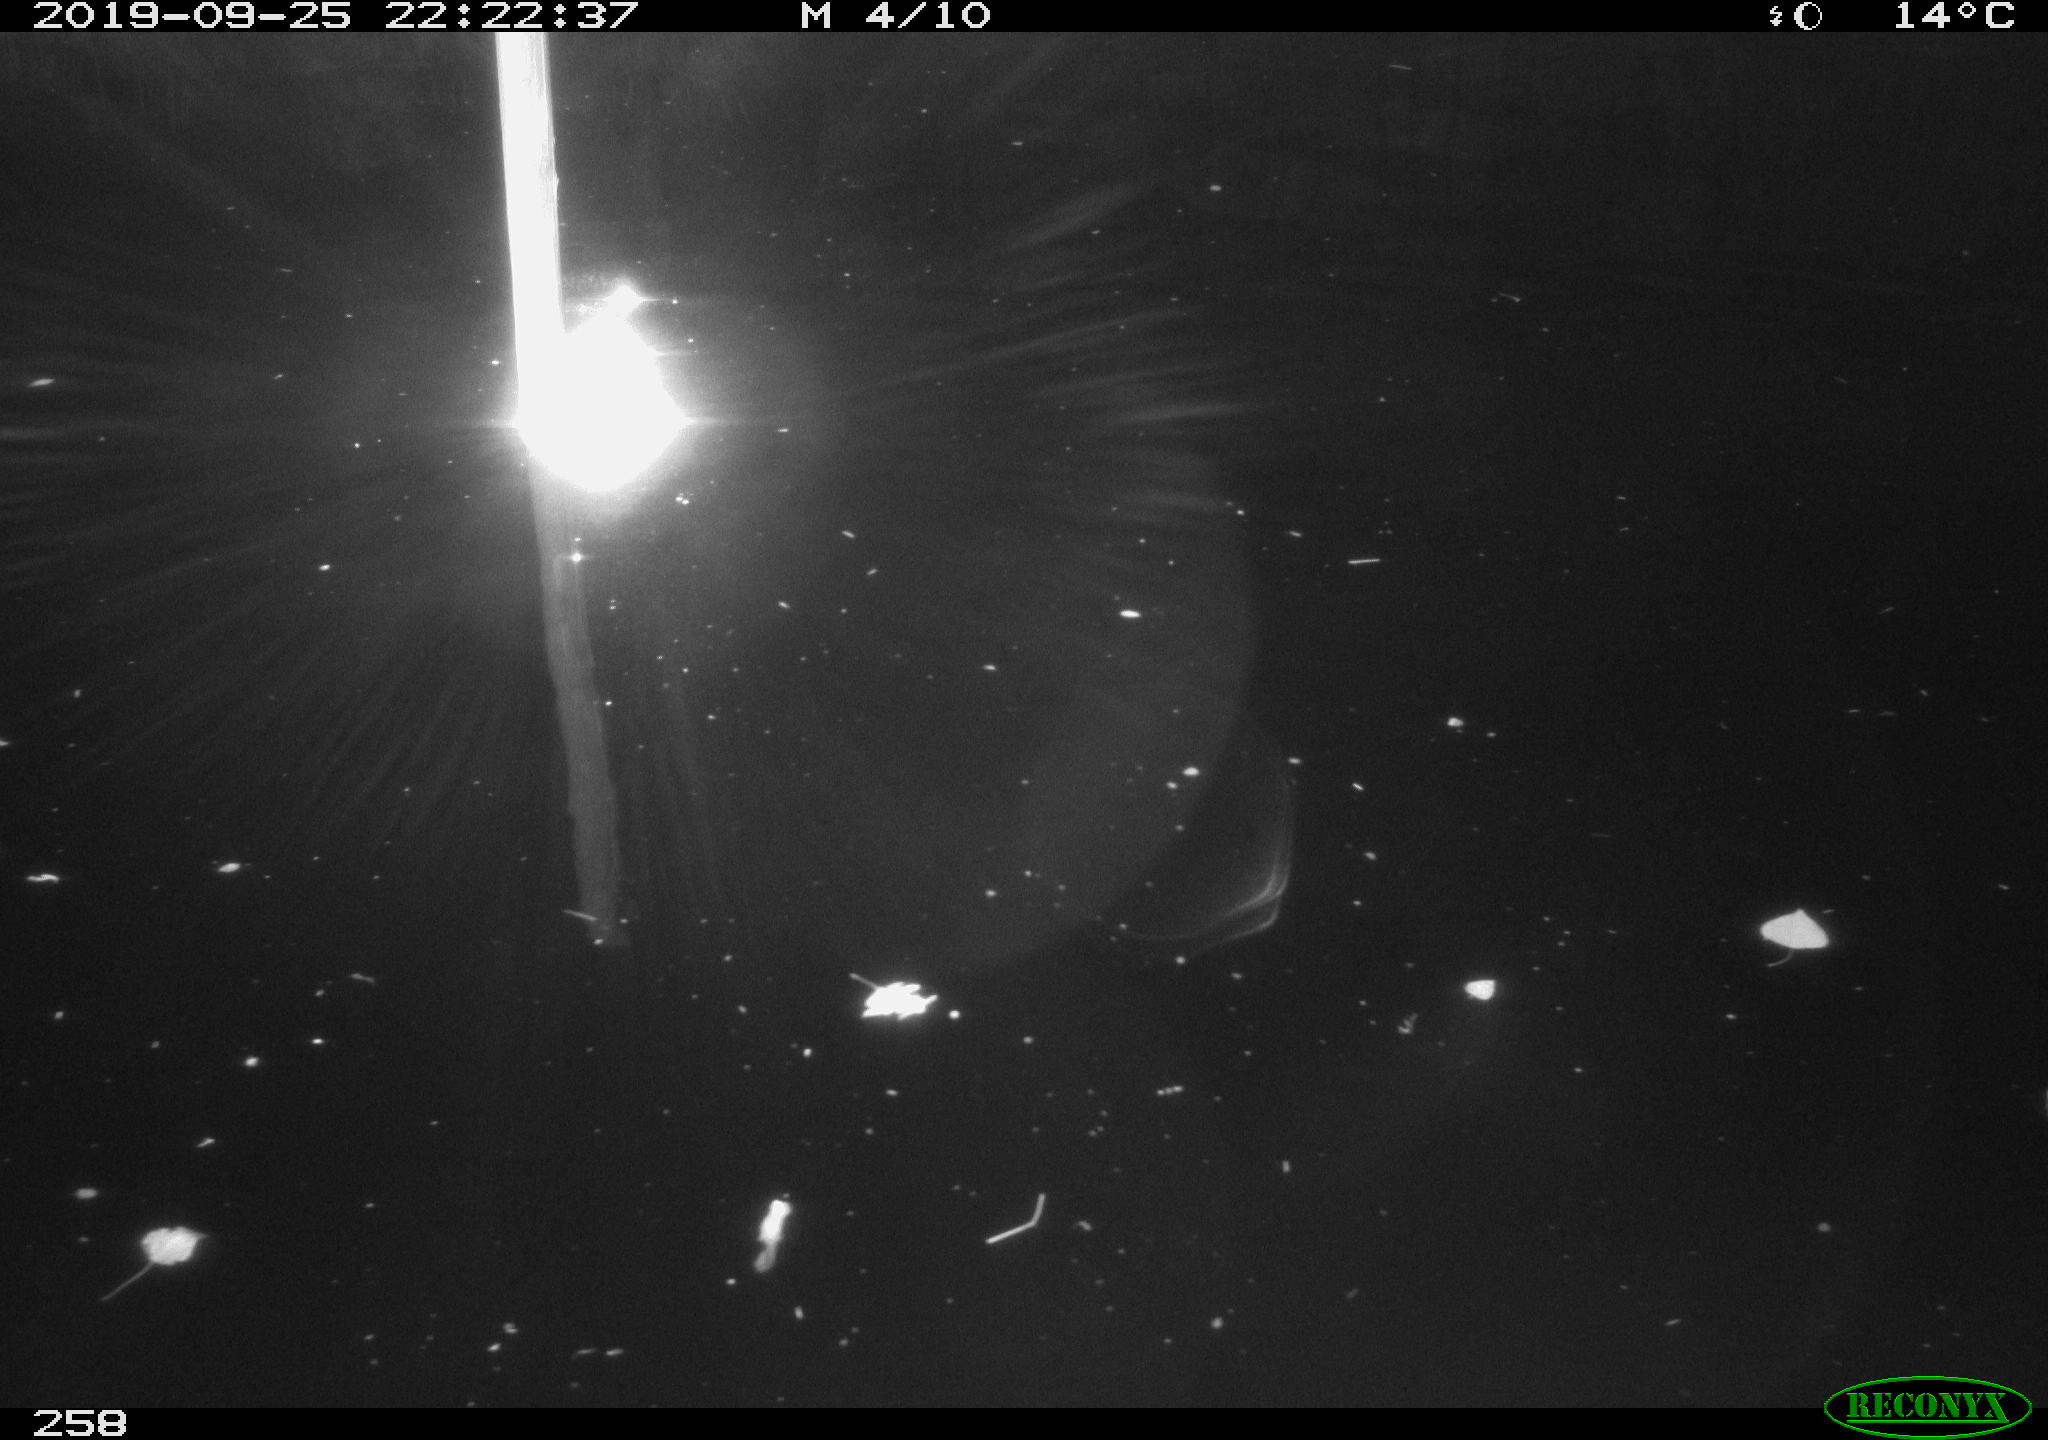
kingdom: Animalia
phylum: Chordata
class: Aves
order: Anseriformes
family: Anatidae
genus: Anas
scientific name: Anas platyrhynchos
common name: Mallard
